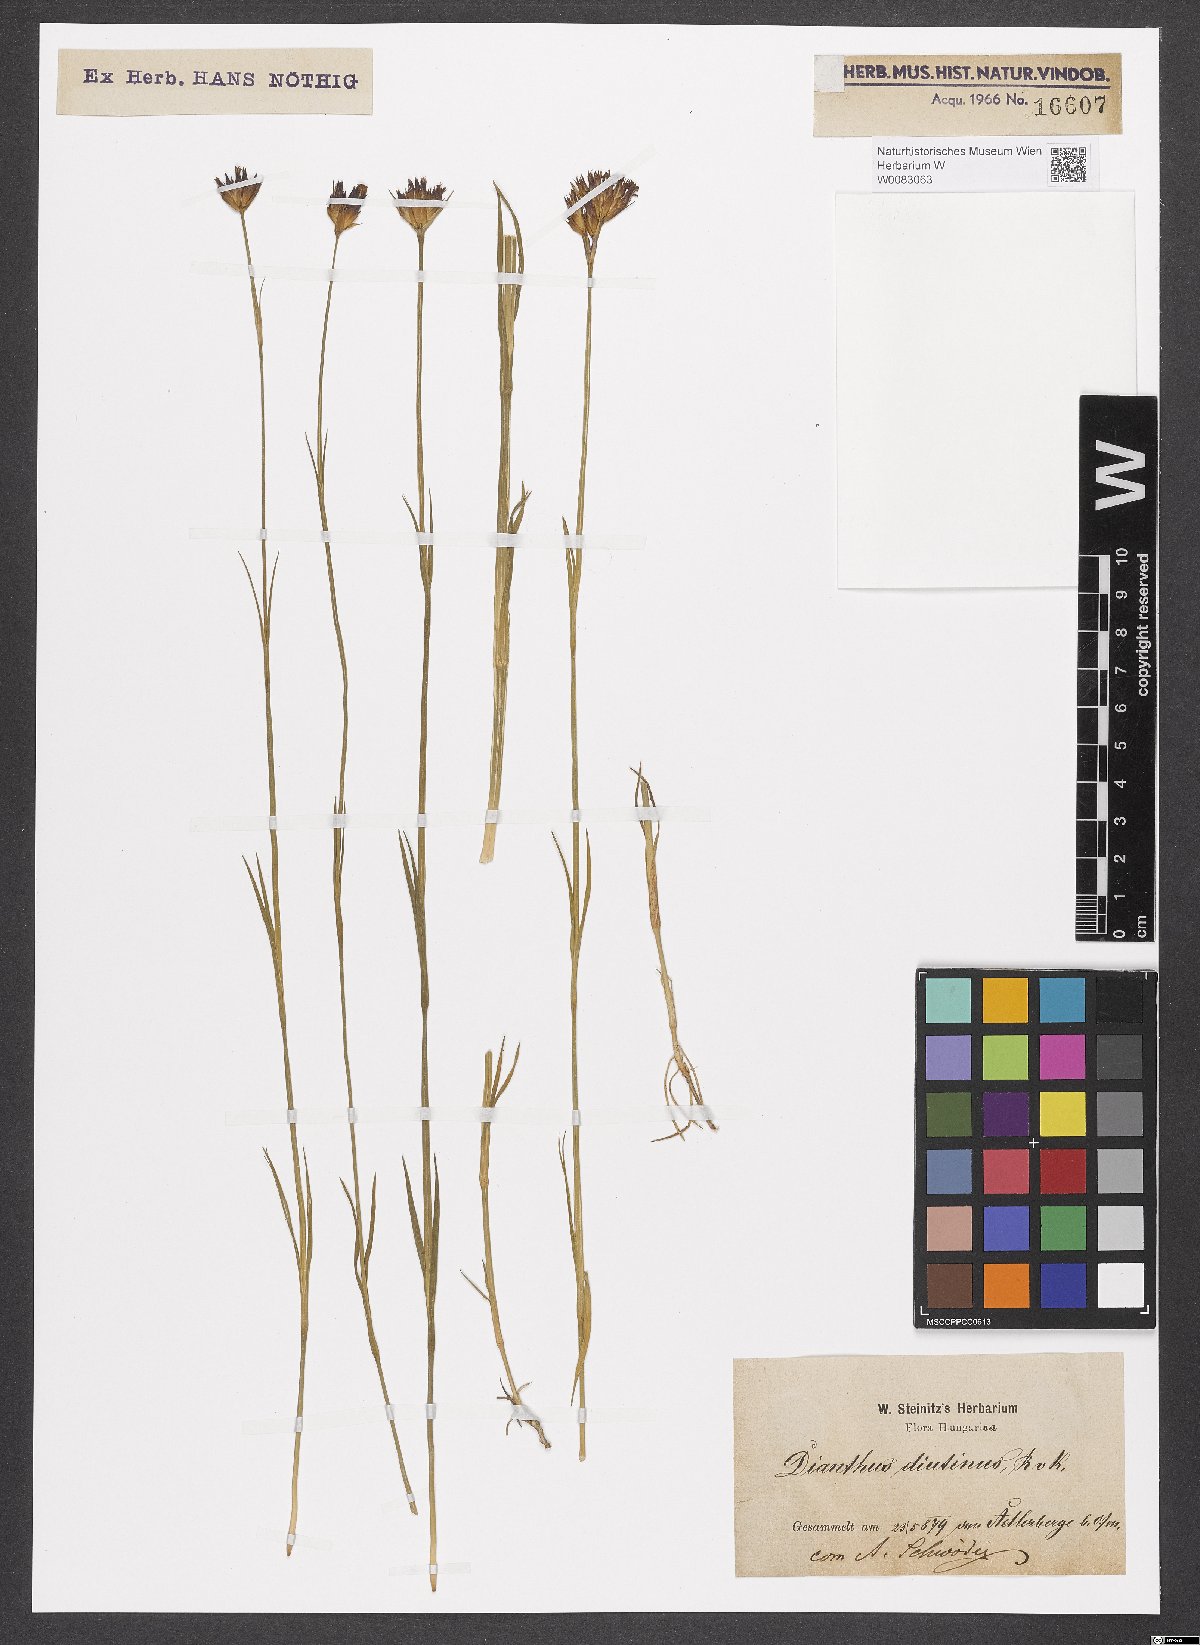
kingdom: Plantae
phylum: Tracheophyta
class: Magnoliopsida
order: Caryophyllales
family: Caryophyllaceae
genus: Dianthus
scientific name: Dianthus polymorphus
